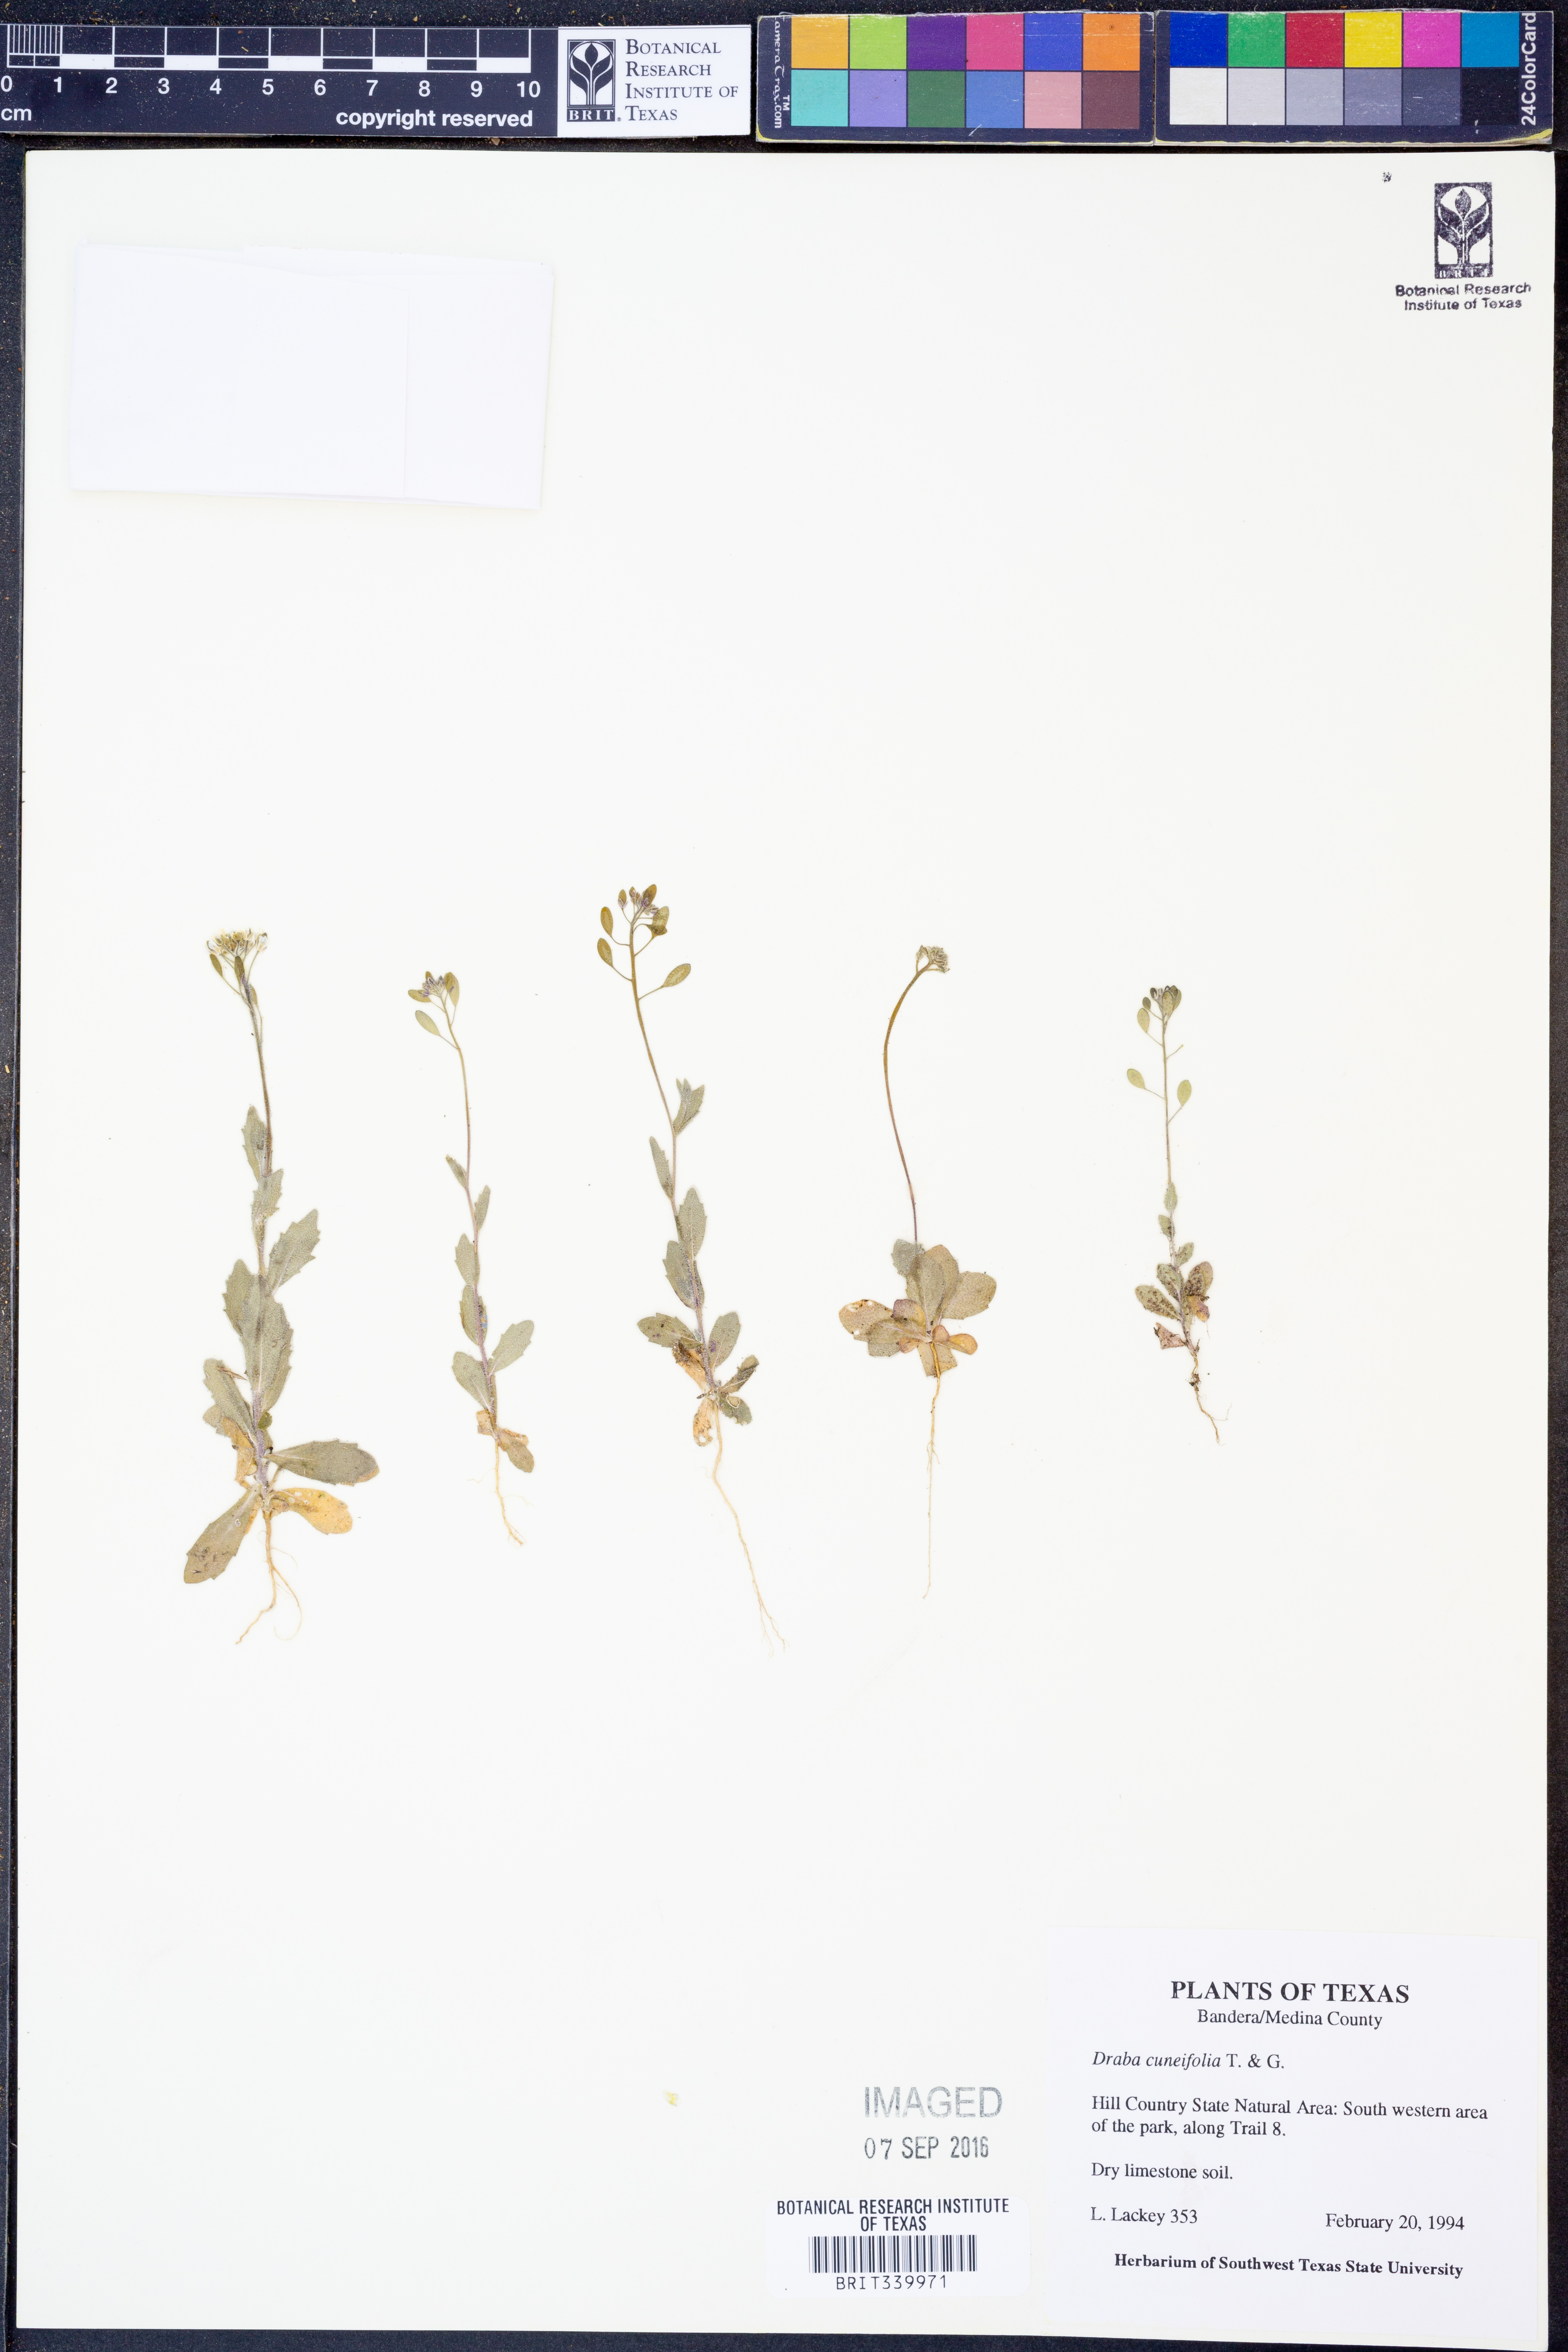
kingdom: Plantae
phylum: Tracheophyta
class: Magnoliopsida
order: Brassicales
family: Brassicaceae
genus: Tomostima
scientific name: Tomostima cuneifolia
